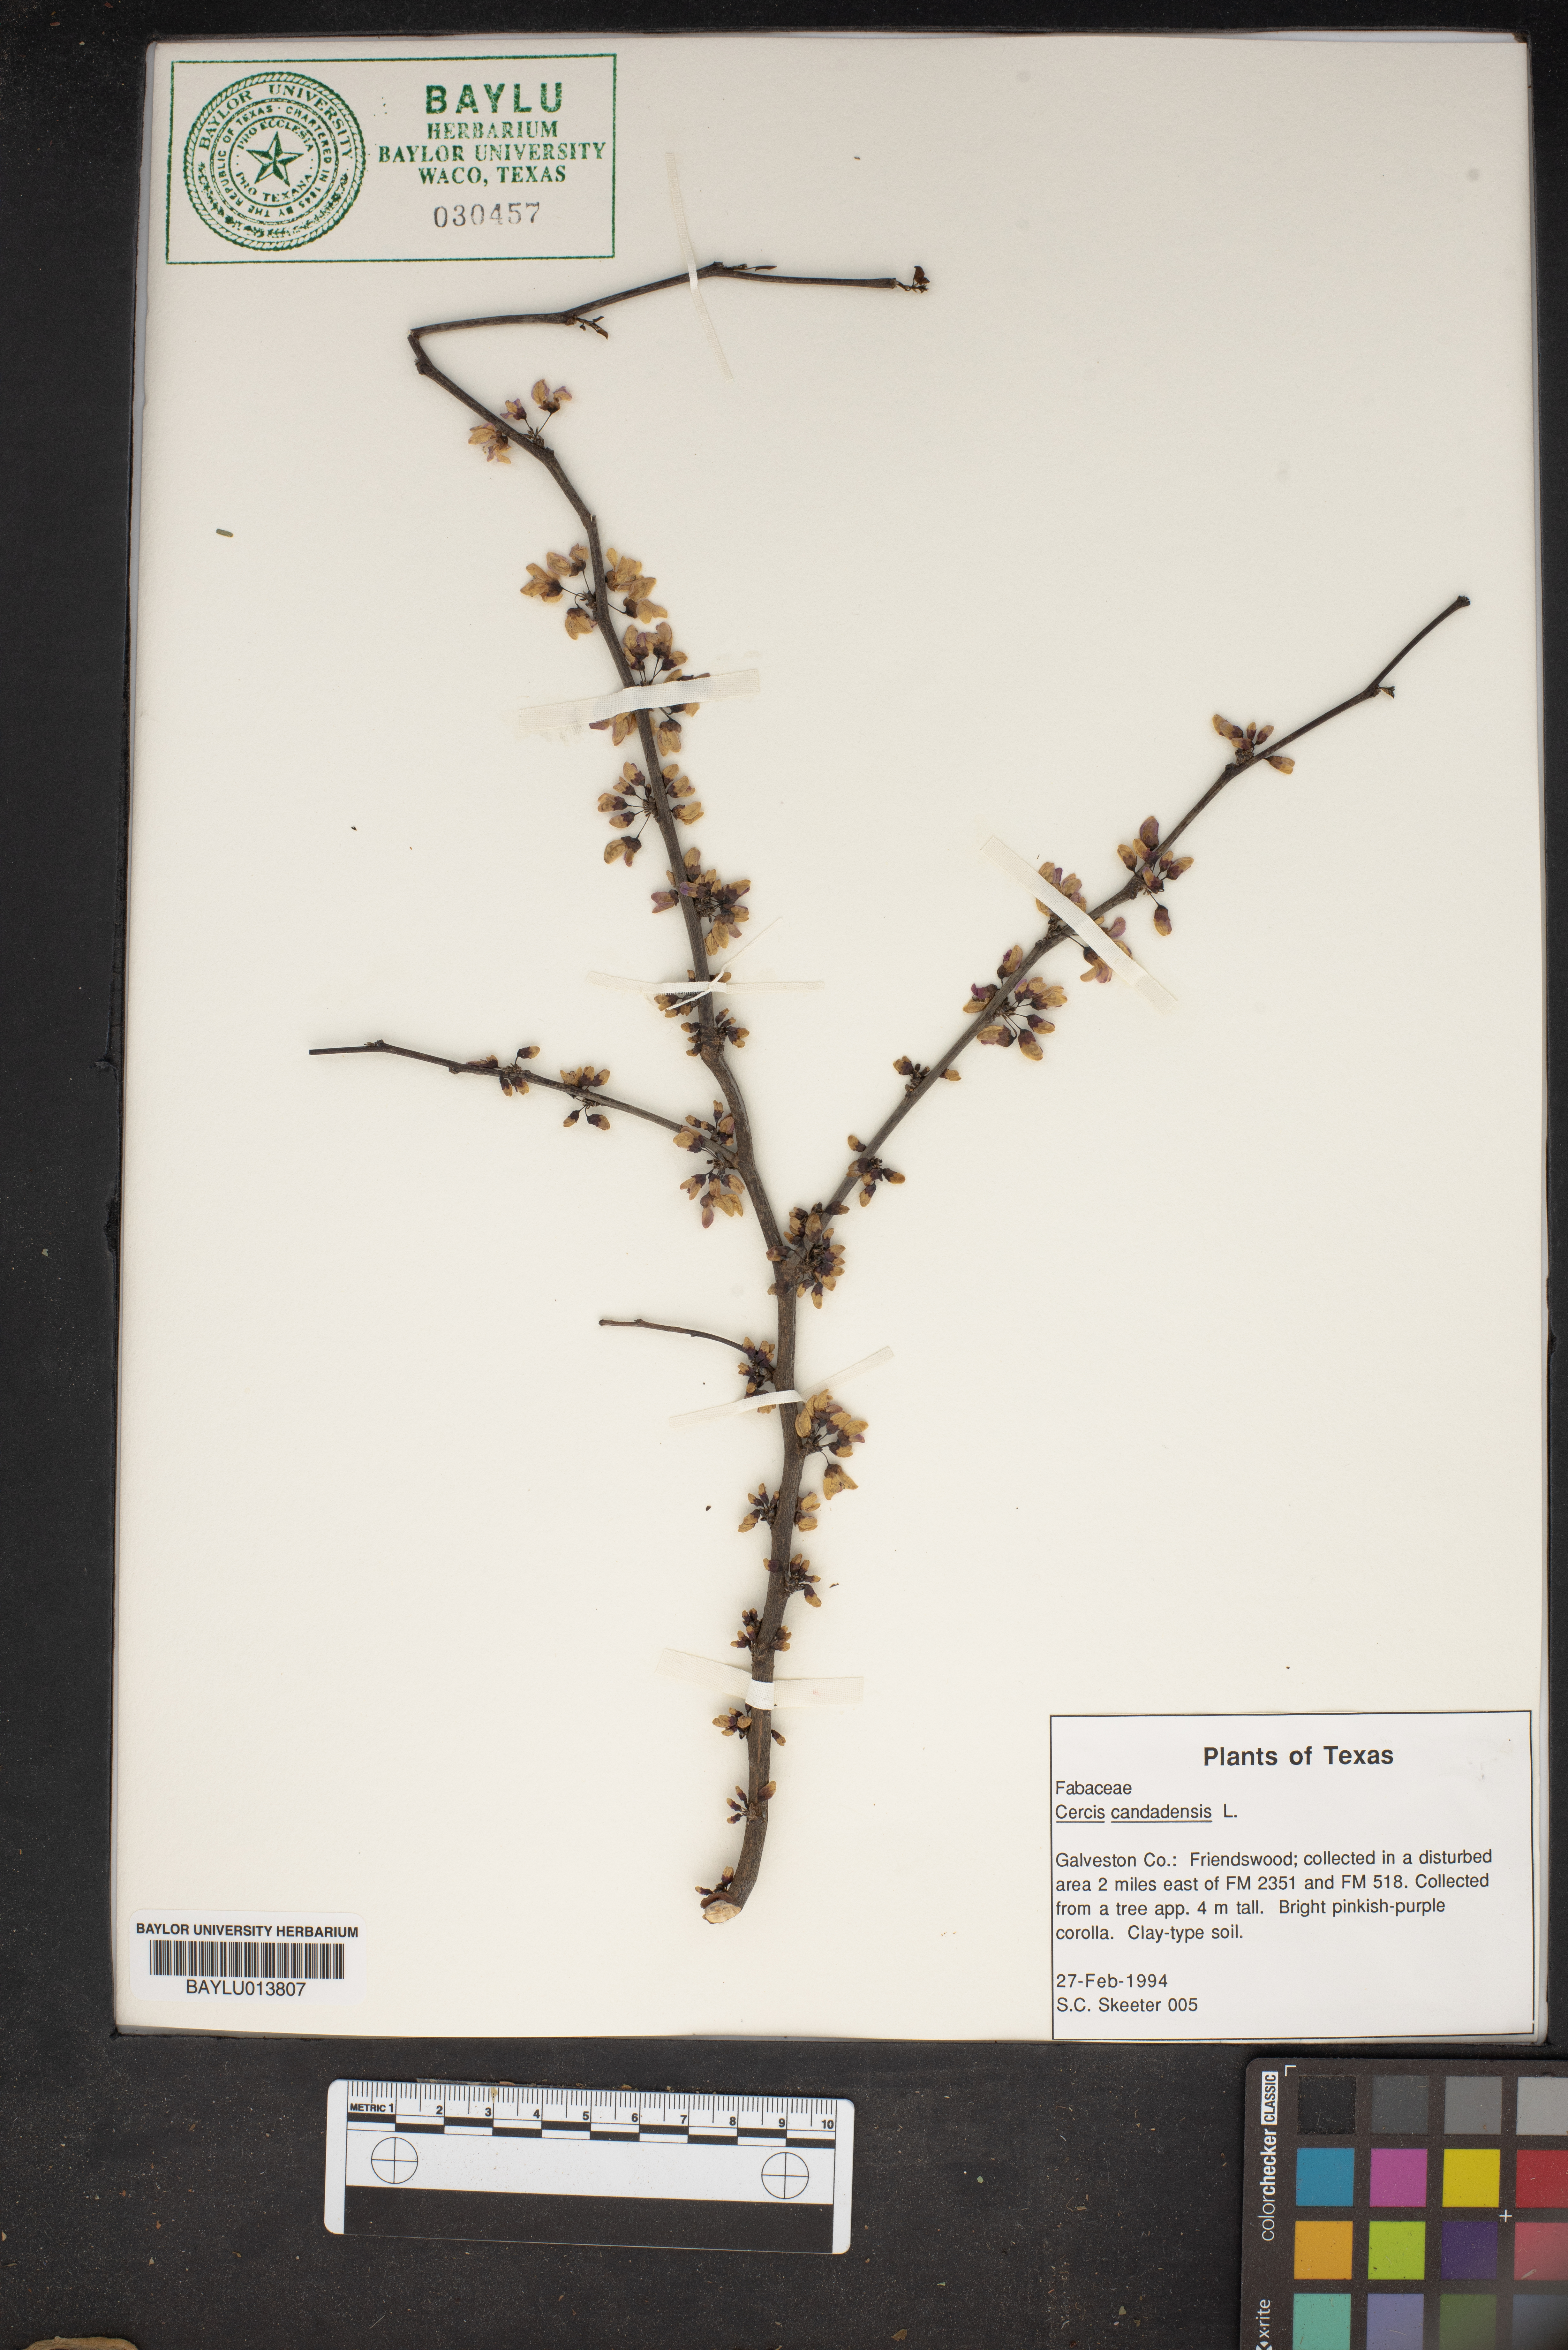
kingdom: Plantae
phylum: Tracheophyta
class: Magnoliopsida
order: Fabales
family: Fabaceae
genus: Cercis
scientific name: Cercis canadensis
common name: Eastern redbud
